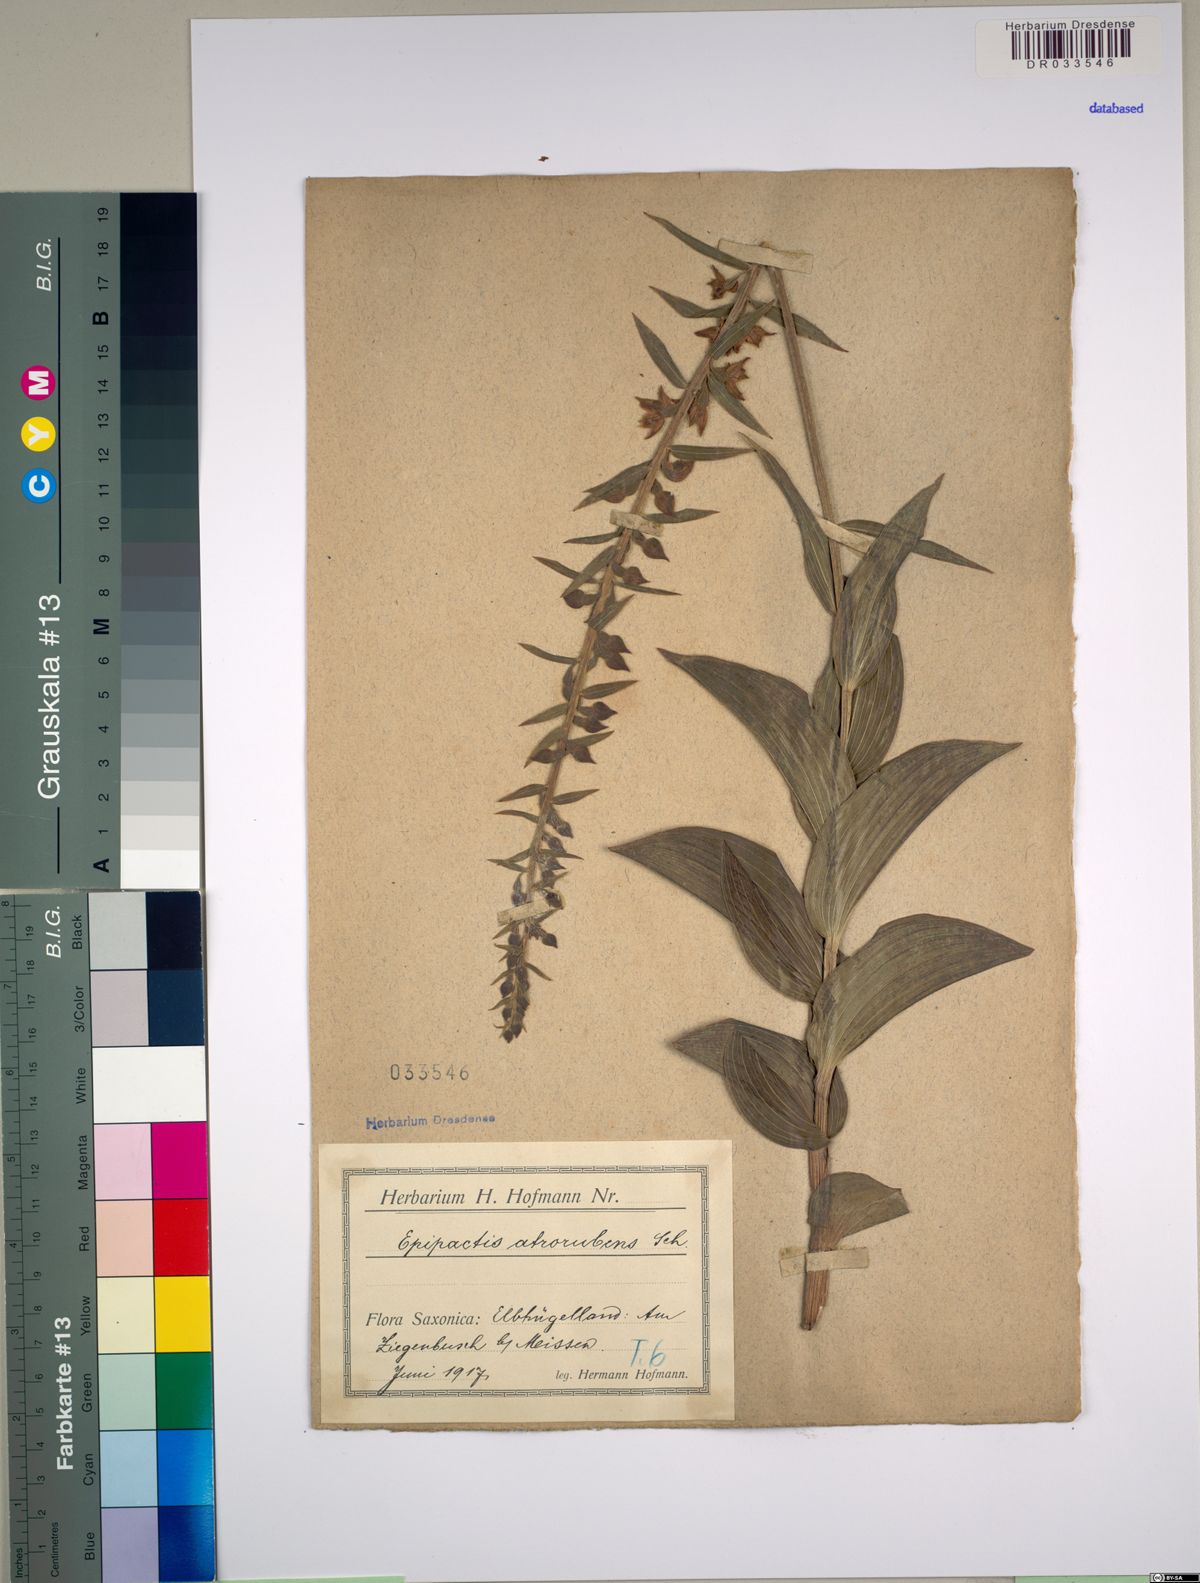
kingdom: Plantae
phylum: Tracheophyta
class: Liliopsida
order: Asparagales
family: Orchidaceae
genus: Epipactis
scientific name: Epipactis atrorubens
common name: Dark-red helleborine
